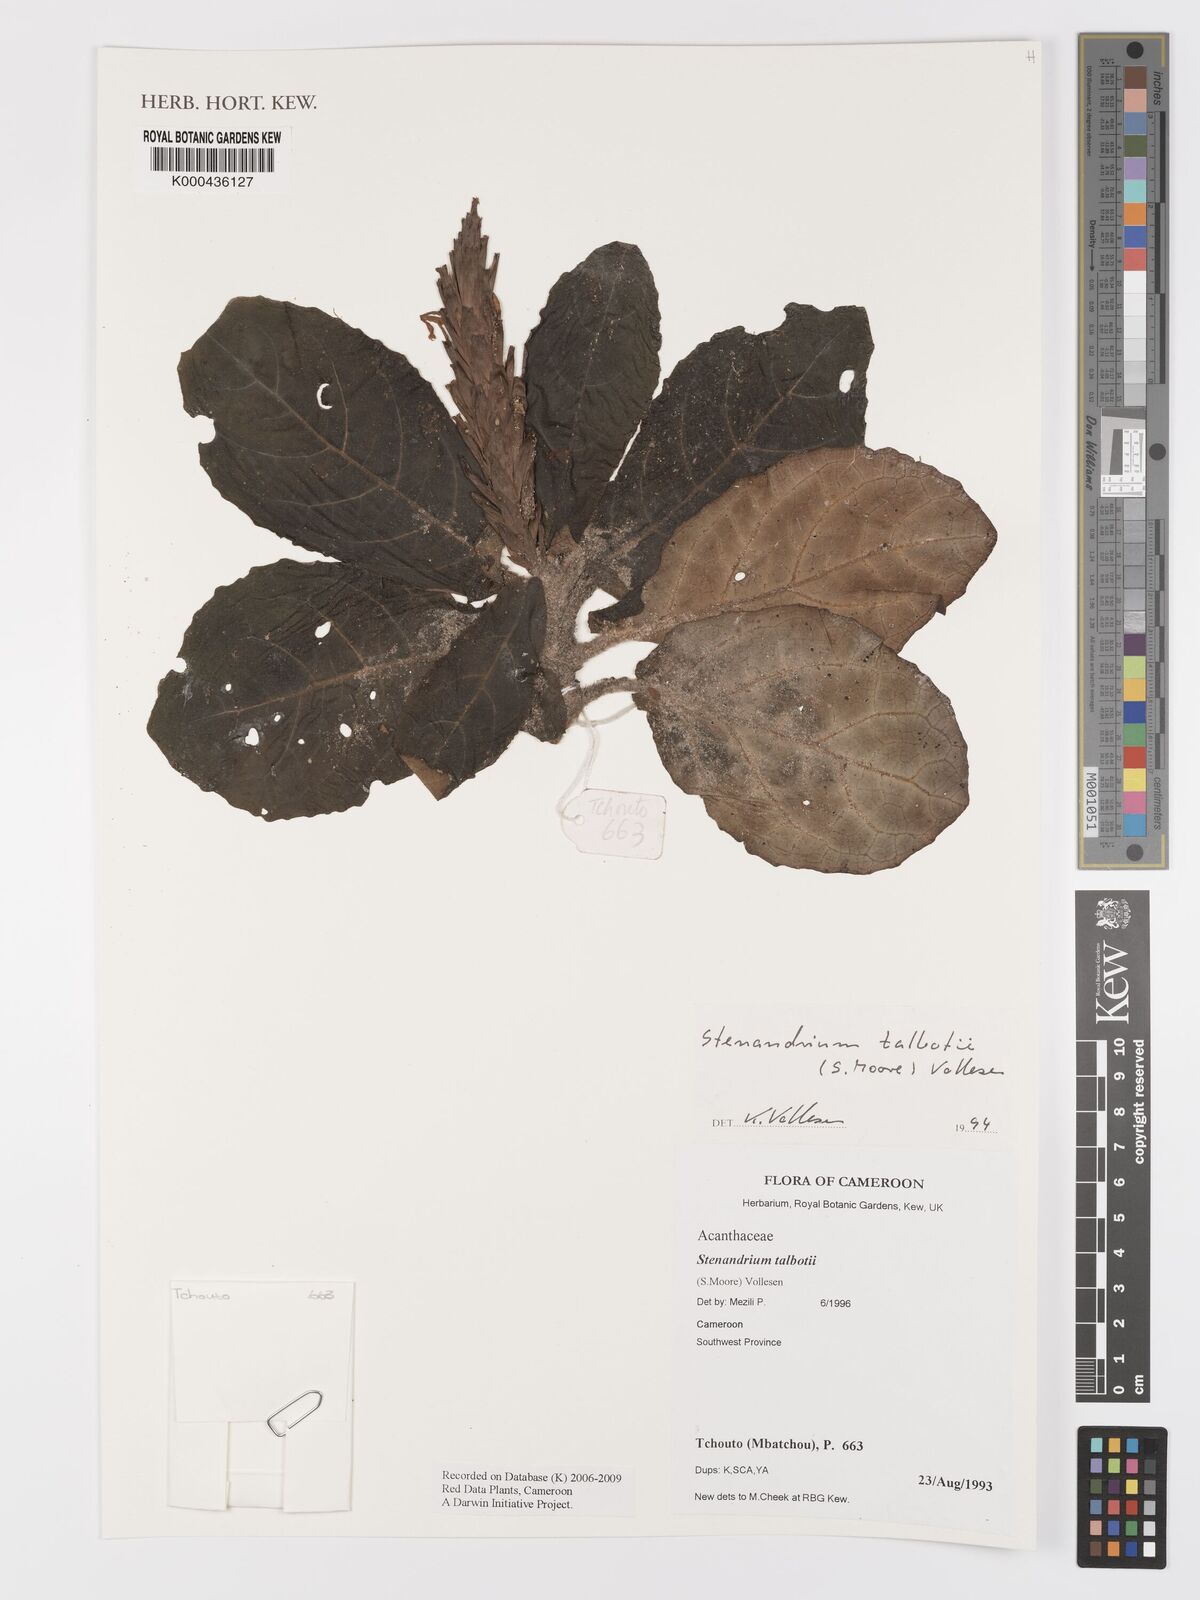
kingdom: Plantae
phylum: Tracheophyta
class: Magnoliopsida
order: Lamiales
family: Acanthaceae
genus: Stenandriopsis
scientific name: Stenandriopsis talbotii
